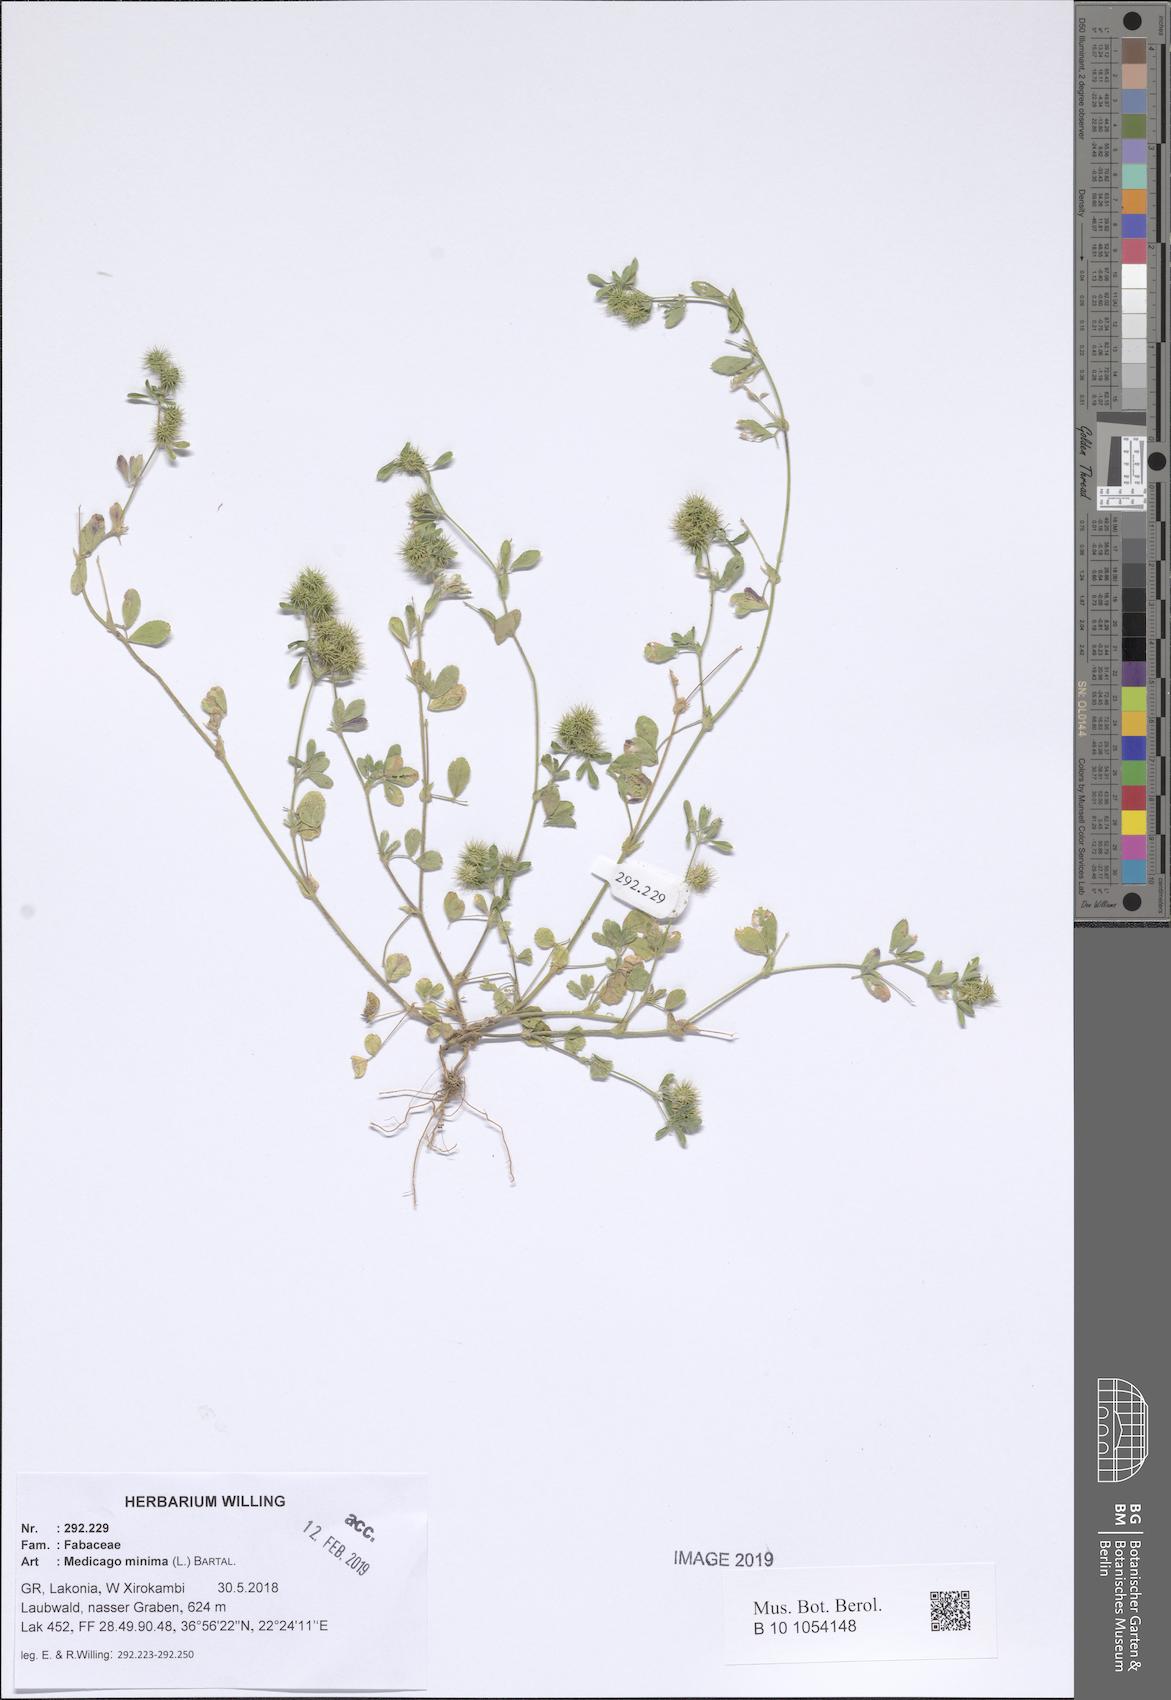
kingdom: Plantae
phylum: Tracheophyta
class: Magnoliopsida
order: Fabales
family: Fabaceae
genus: Medicago
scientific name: Medicago minima
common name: Little bur-clover
